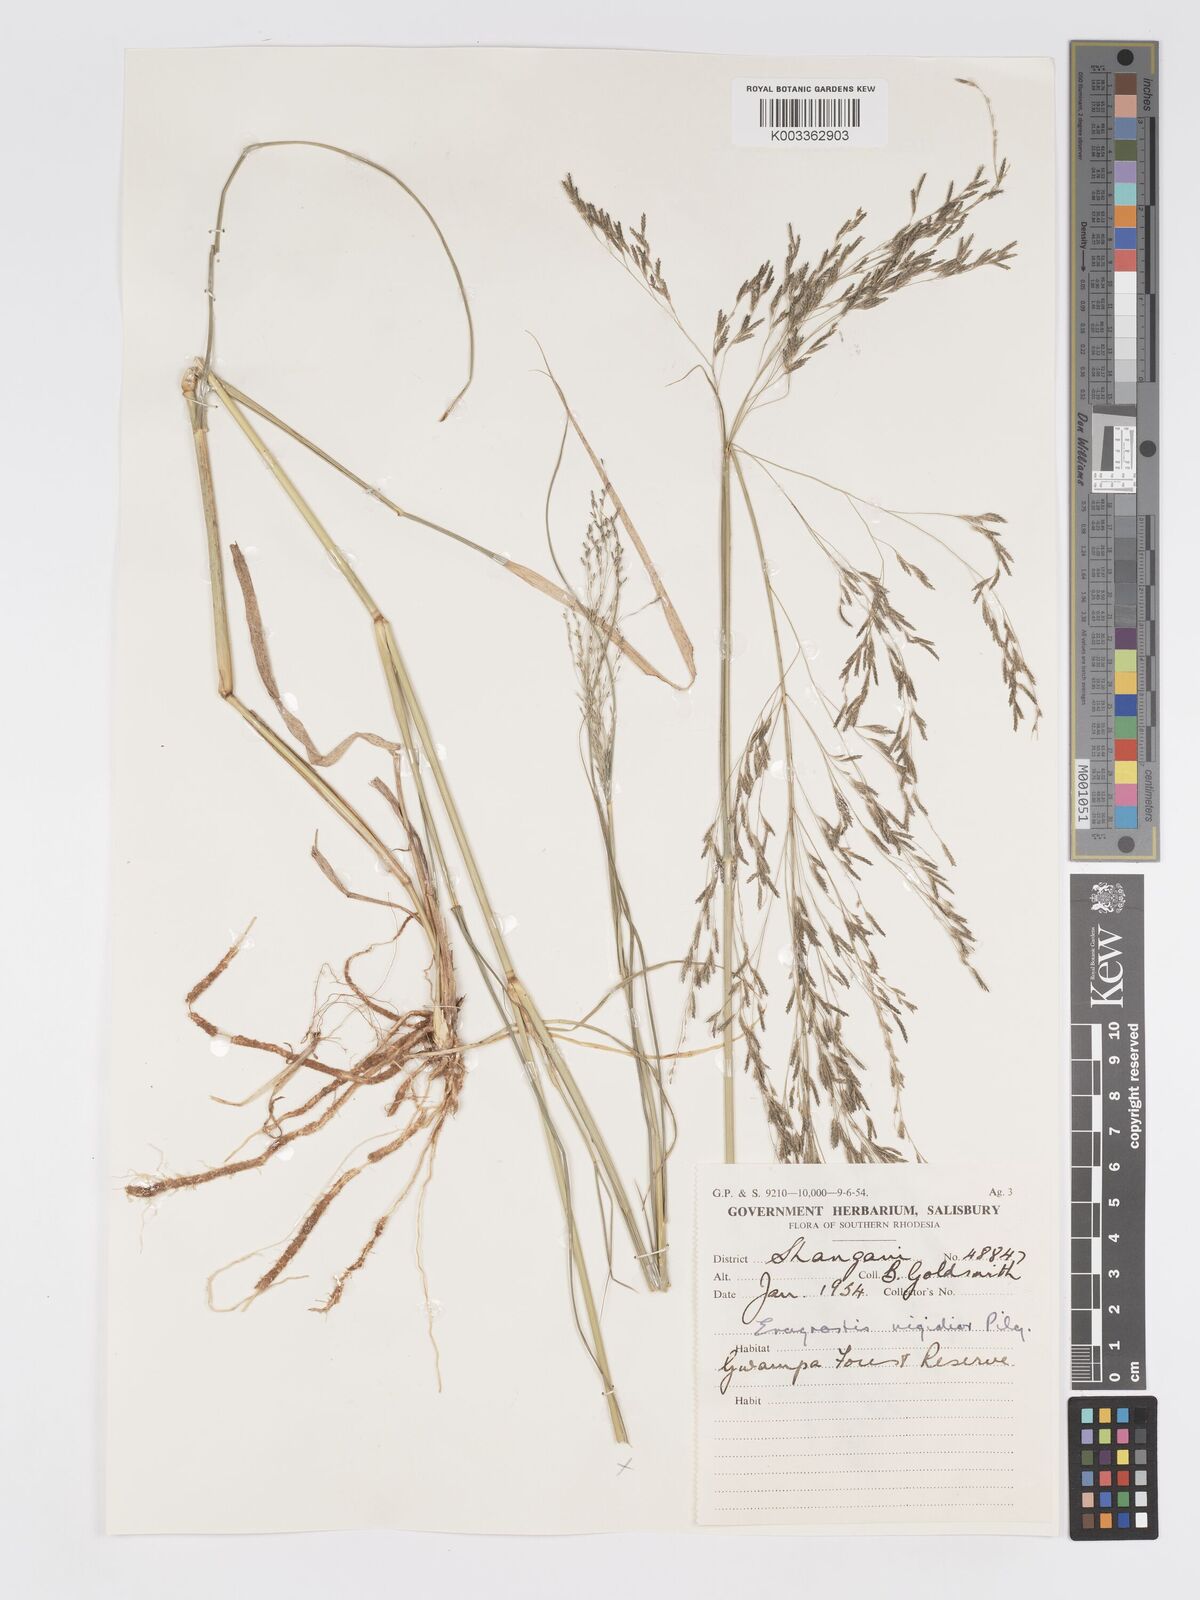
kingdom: Plantae
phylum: Tracheophyta
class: Liliopsida
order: Poales
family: Poaceae
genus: Eragrostis
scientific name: Eragrostis cylindriflora
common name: Cylinderflower lovegrass
